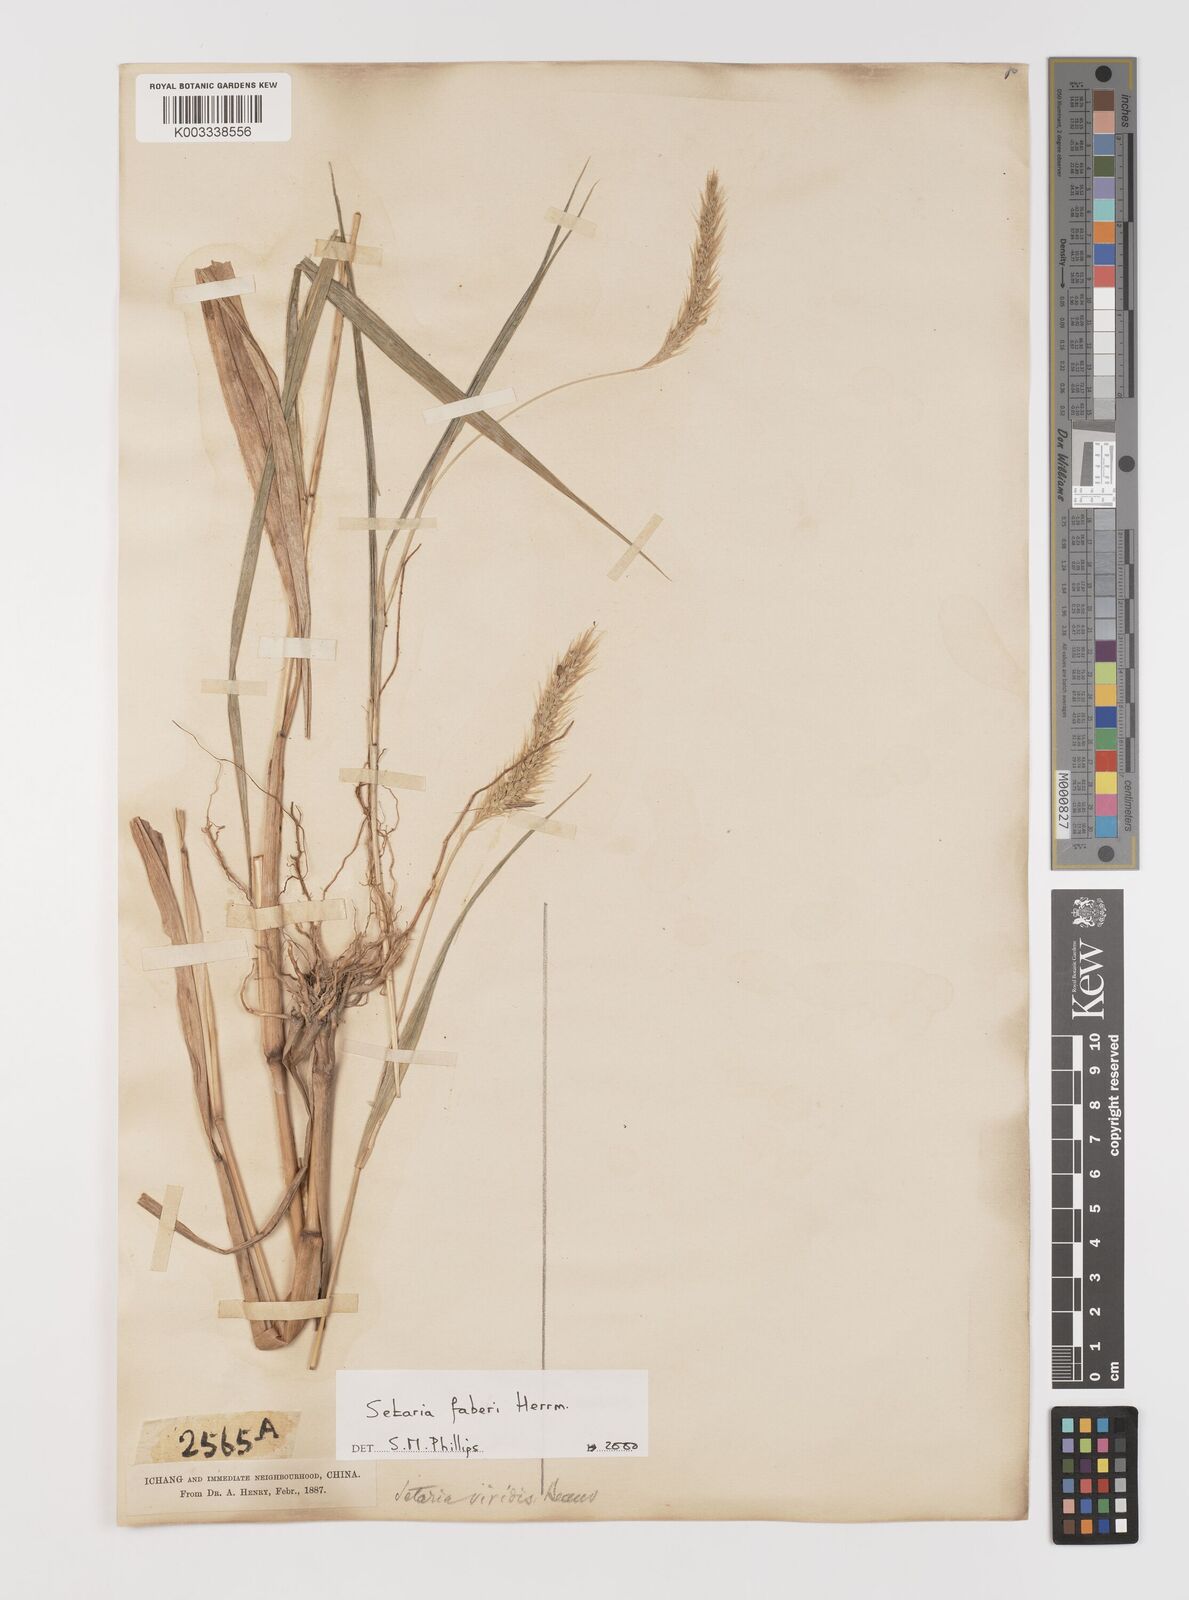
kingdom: Plantae
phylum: Tracheophyta
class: Liliopsida
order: Poales
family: Poaceae
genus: Setaria
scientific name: Setaria faberi
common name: Nodding bristle-grass
